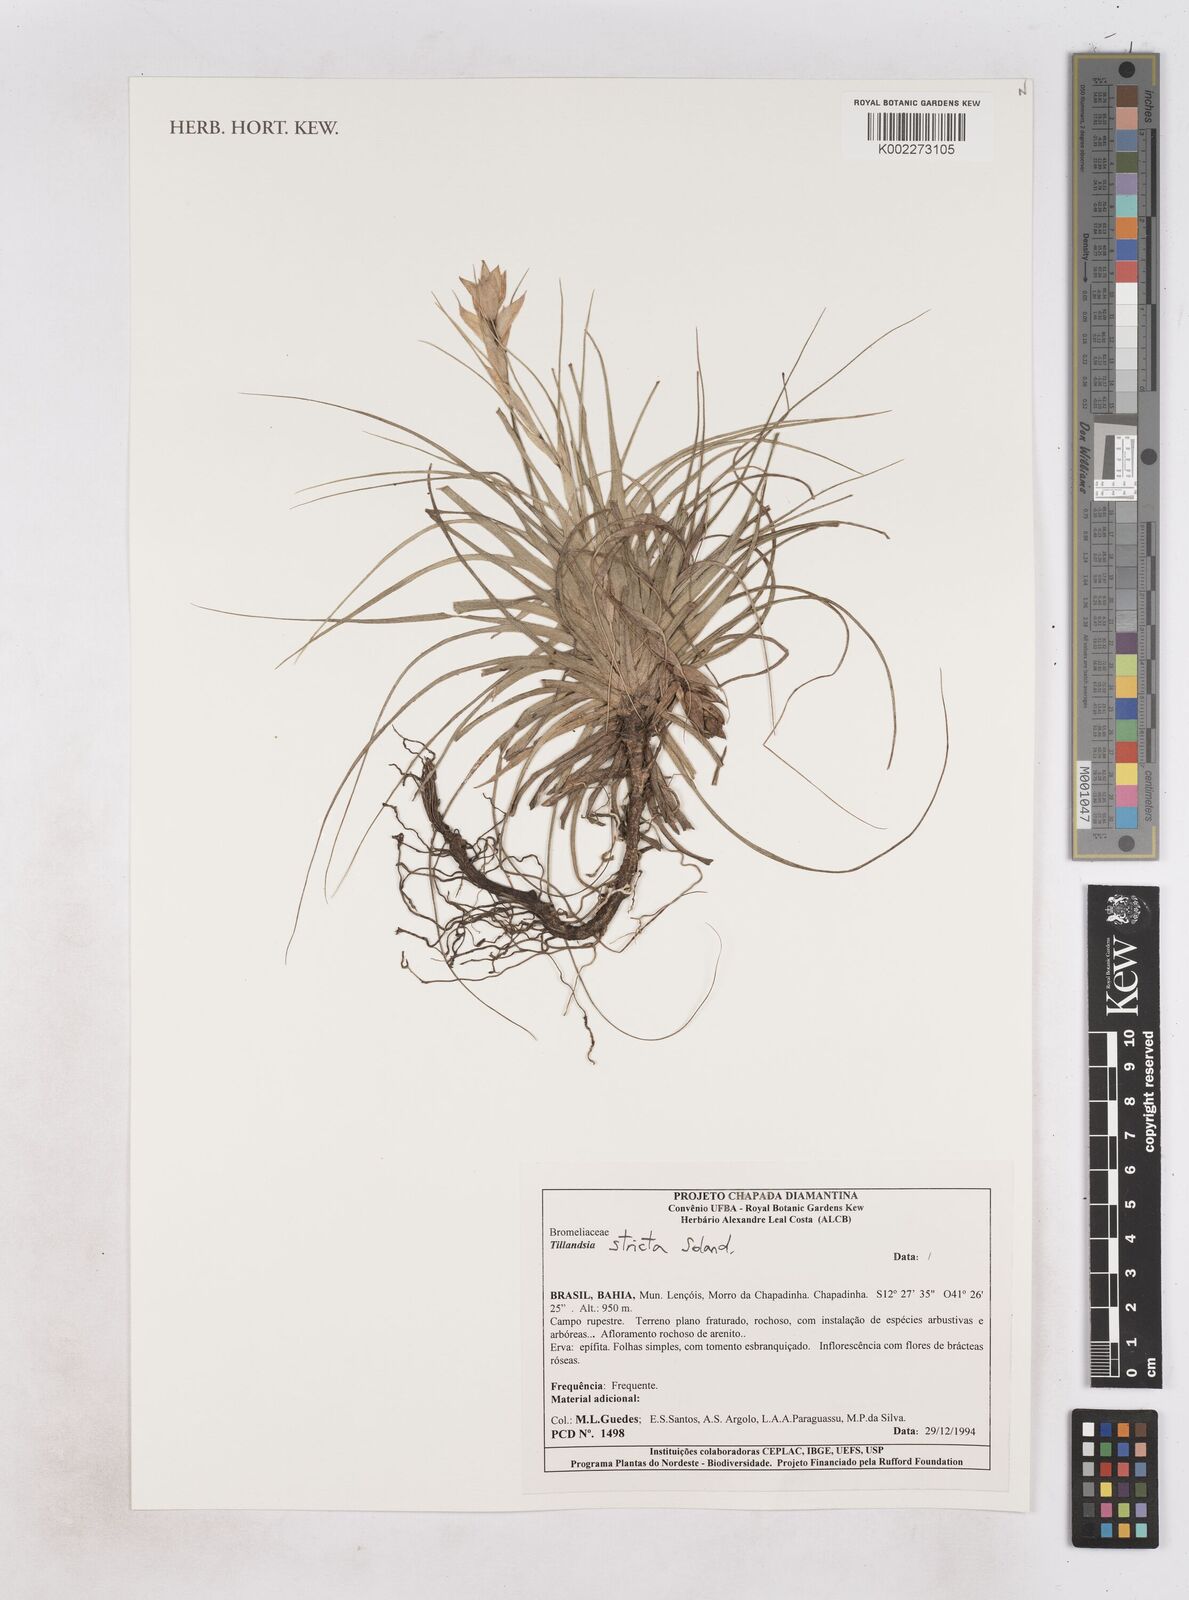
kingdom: Plantae
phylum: Tracheophyta
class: Liliopsida
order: Poales
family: Bromeliaceae
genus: Tillandsia
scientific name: Tillandsia stricta
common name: Airplant
